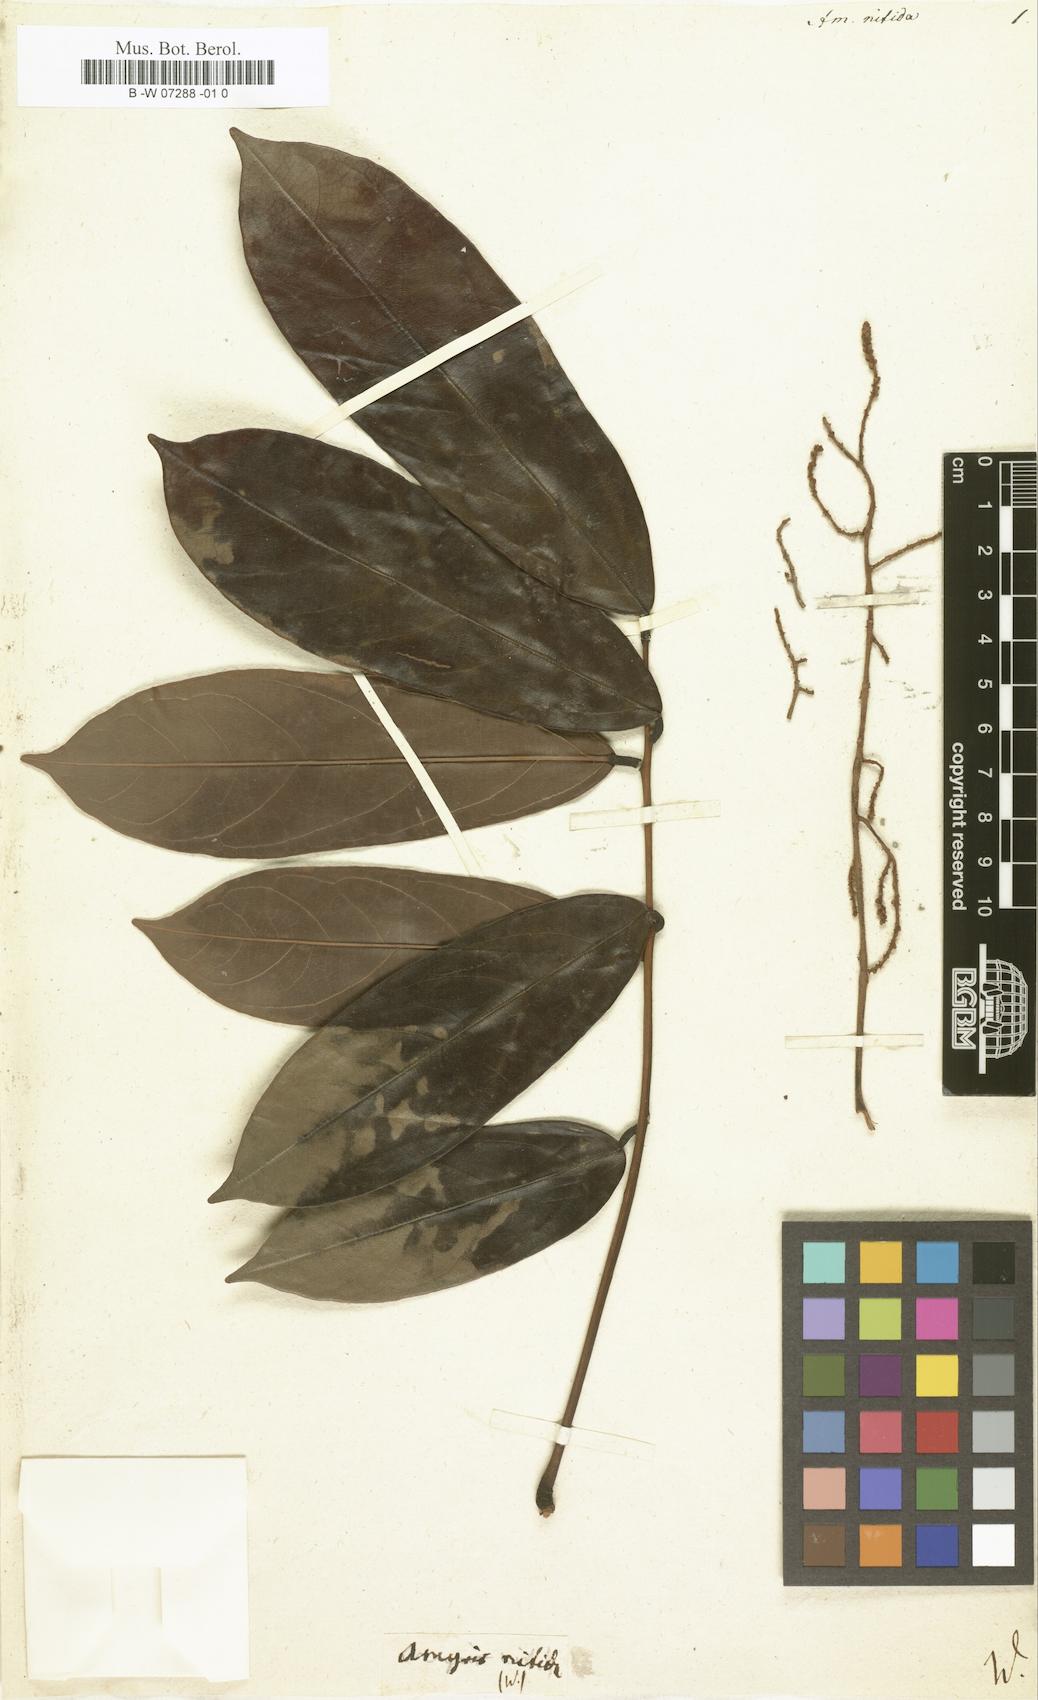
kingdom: Plantae
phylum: Tracheophyta
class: Magnoliopsida
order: Sapindales
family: Rutaceae
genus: Amyris
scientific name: Amyris
